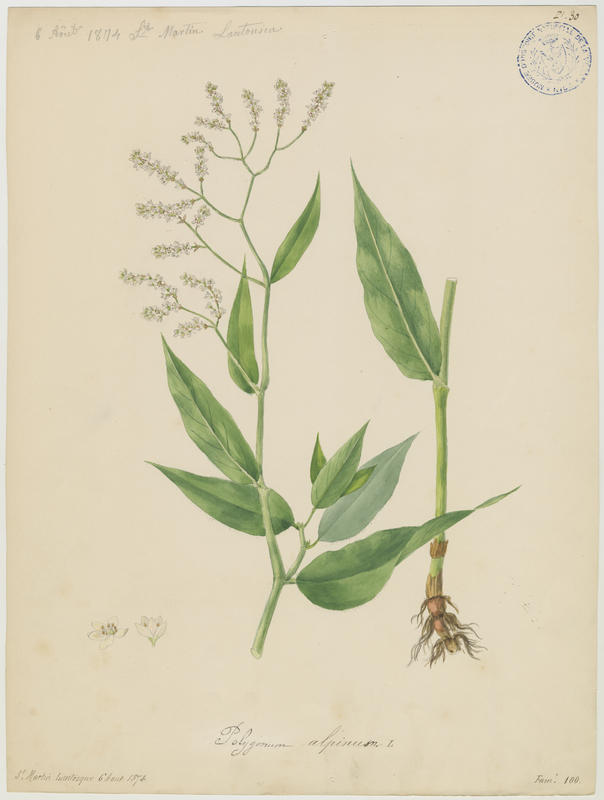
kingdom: Plantae
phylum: Tracheophyta
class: Magnoliopsida
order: Caryophyllales
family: Polygonaceae
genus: Koenigia
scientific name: Koenigia alpina
